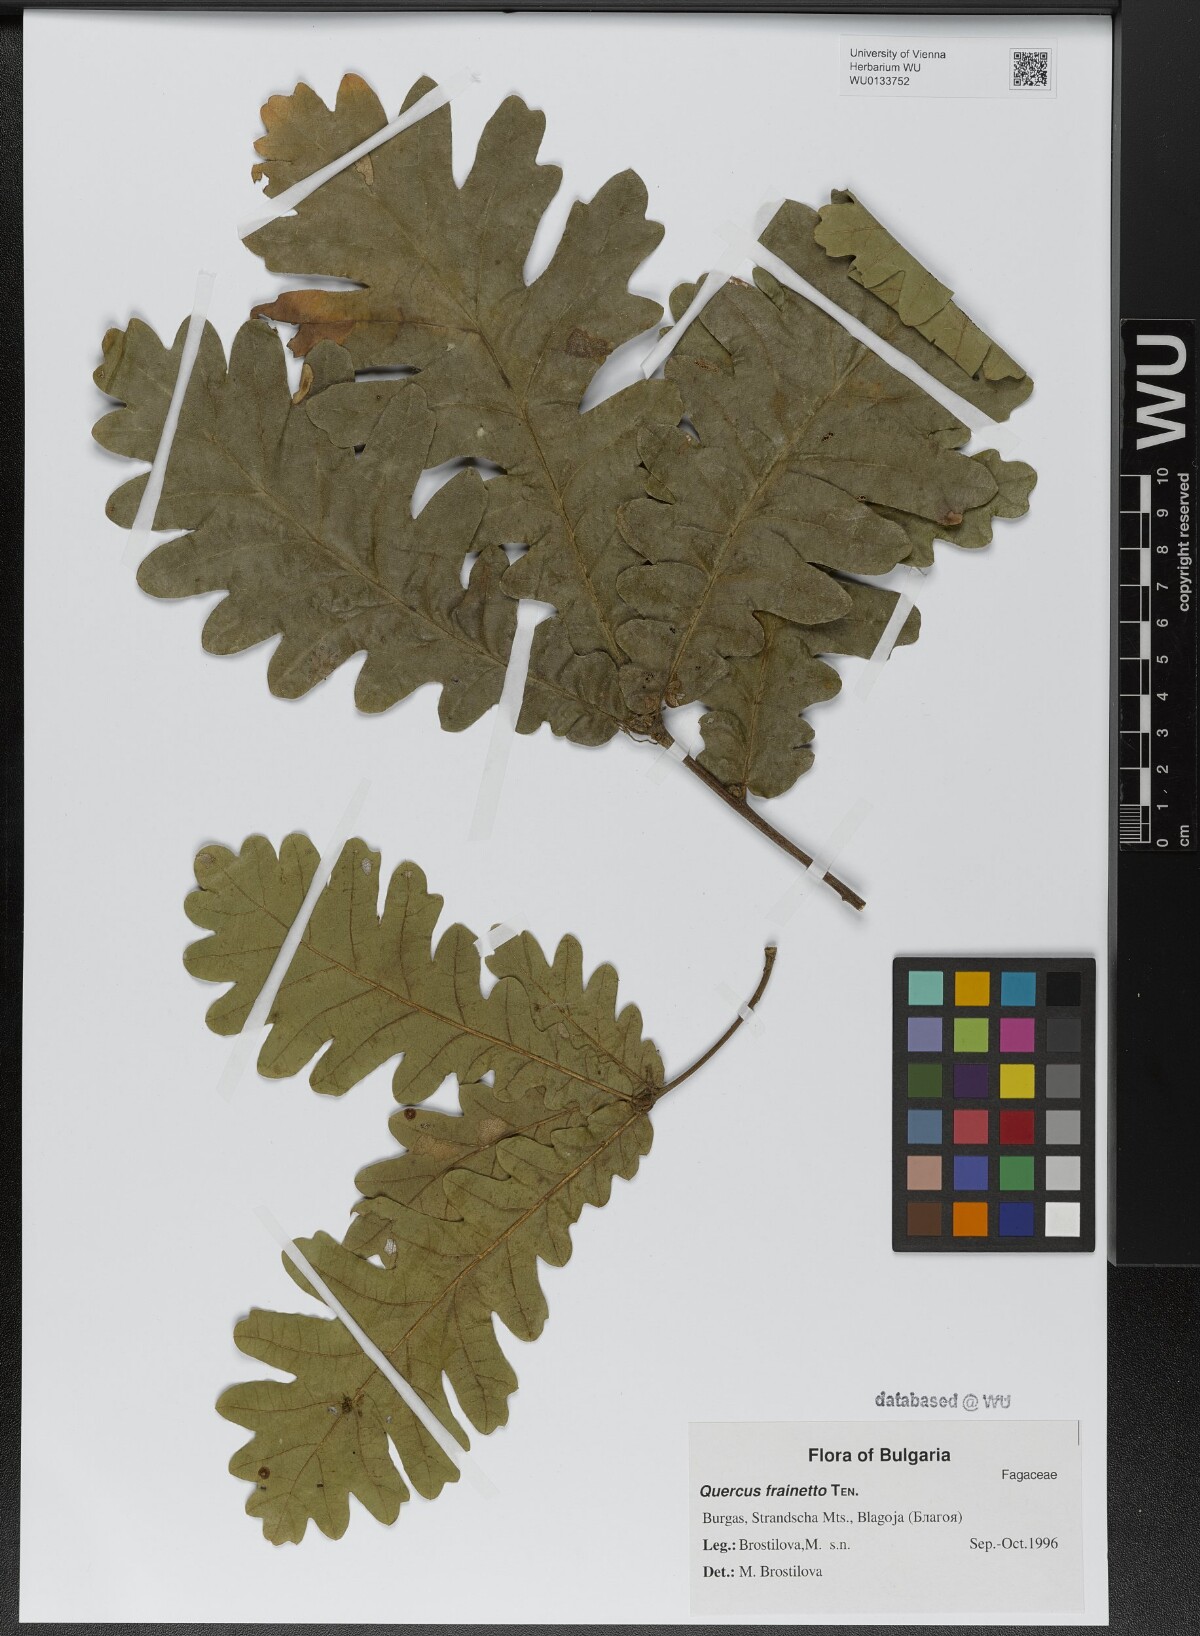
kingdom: Plantae
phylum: Tracheophyta
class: Magnoliopsida
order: Fagales
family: Fagaceae
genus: Quercus
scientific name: Quercus conferta
